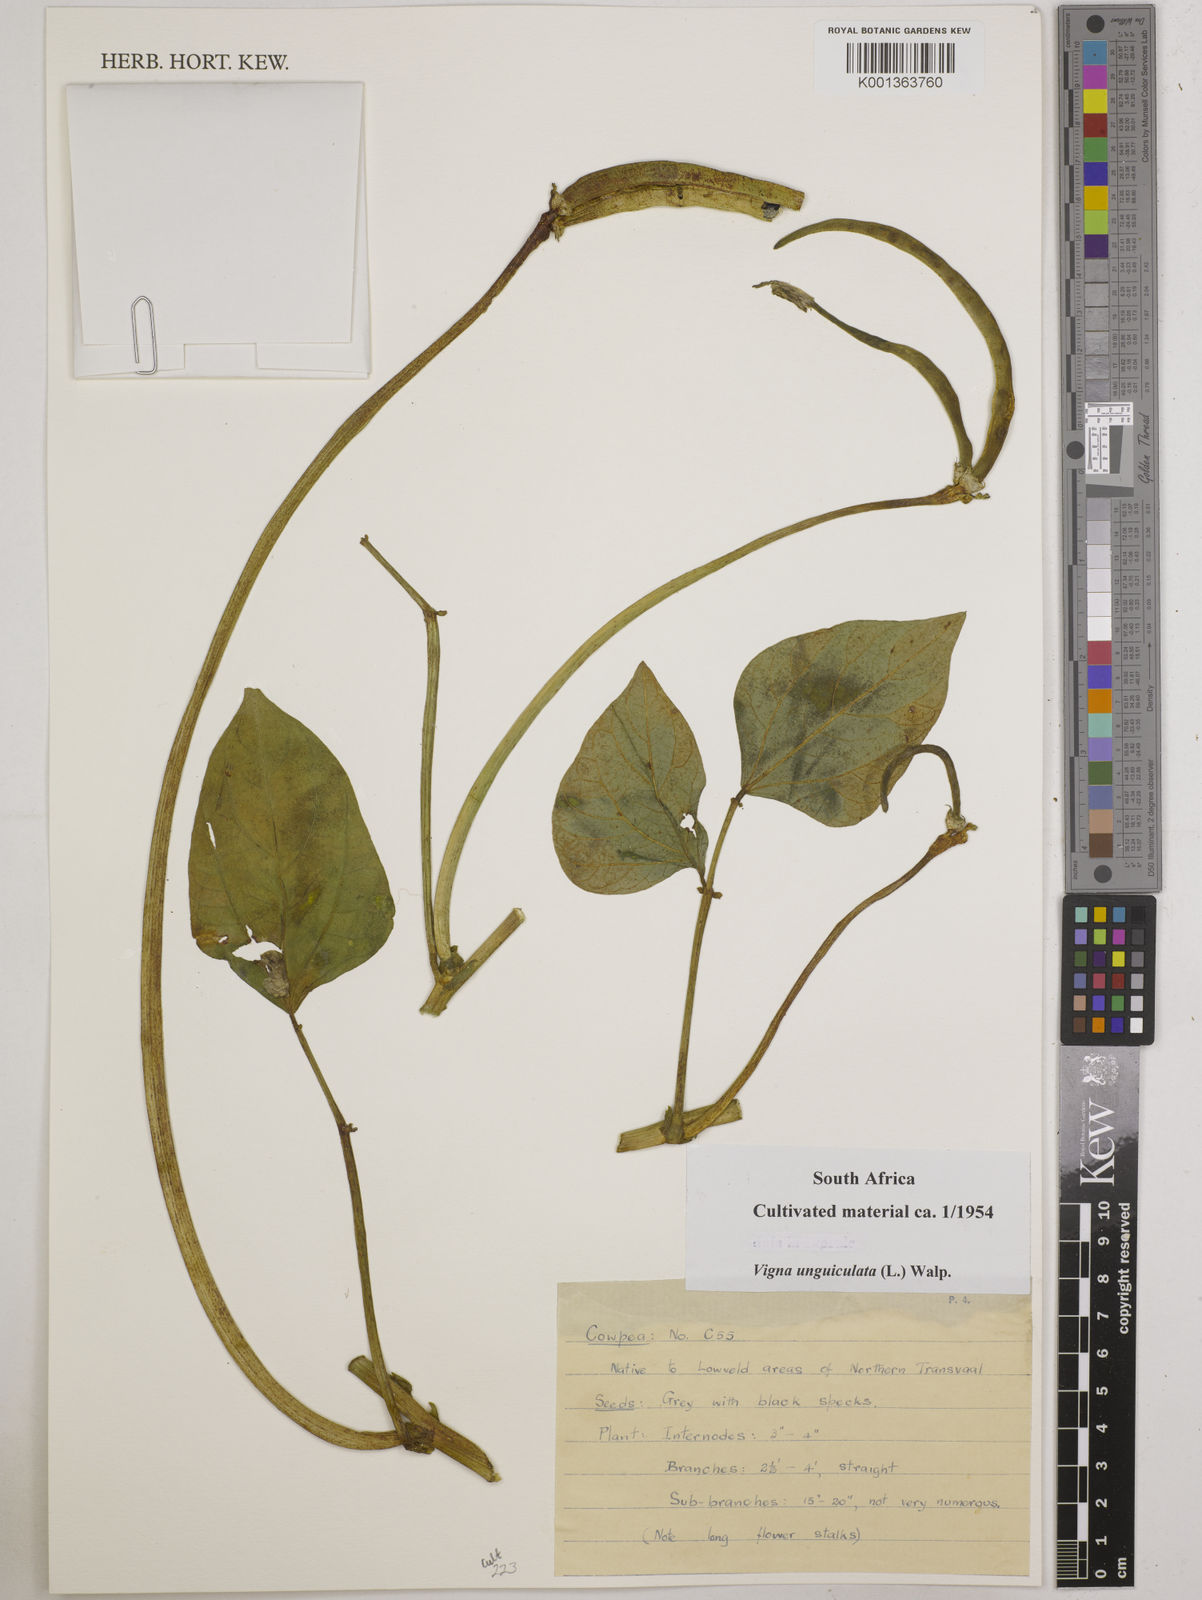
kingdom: Plantae
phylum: Tracheophyta
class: Magnoliopsida
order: Fabales
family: Fabaceae
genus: Vigna
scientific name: Vigna unguiculata
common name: Cowpea
